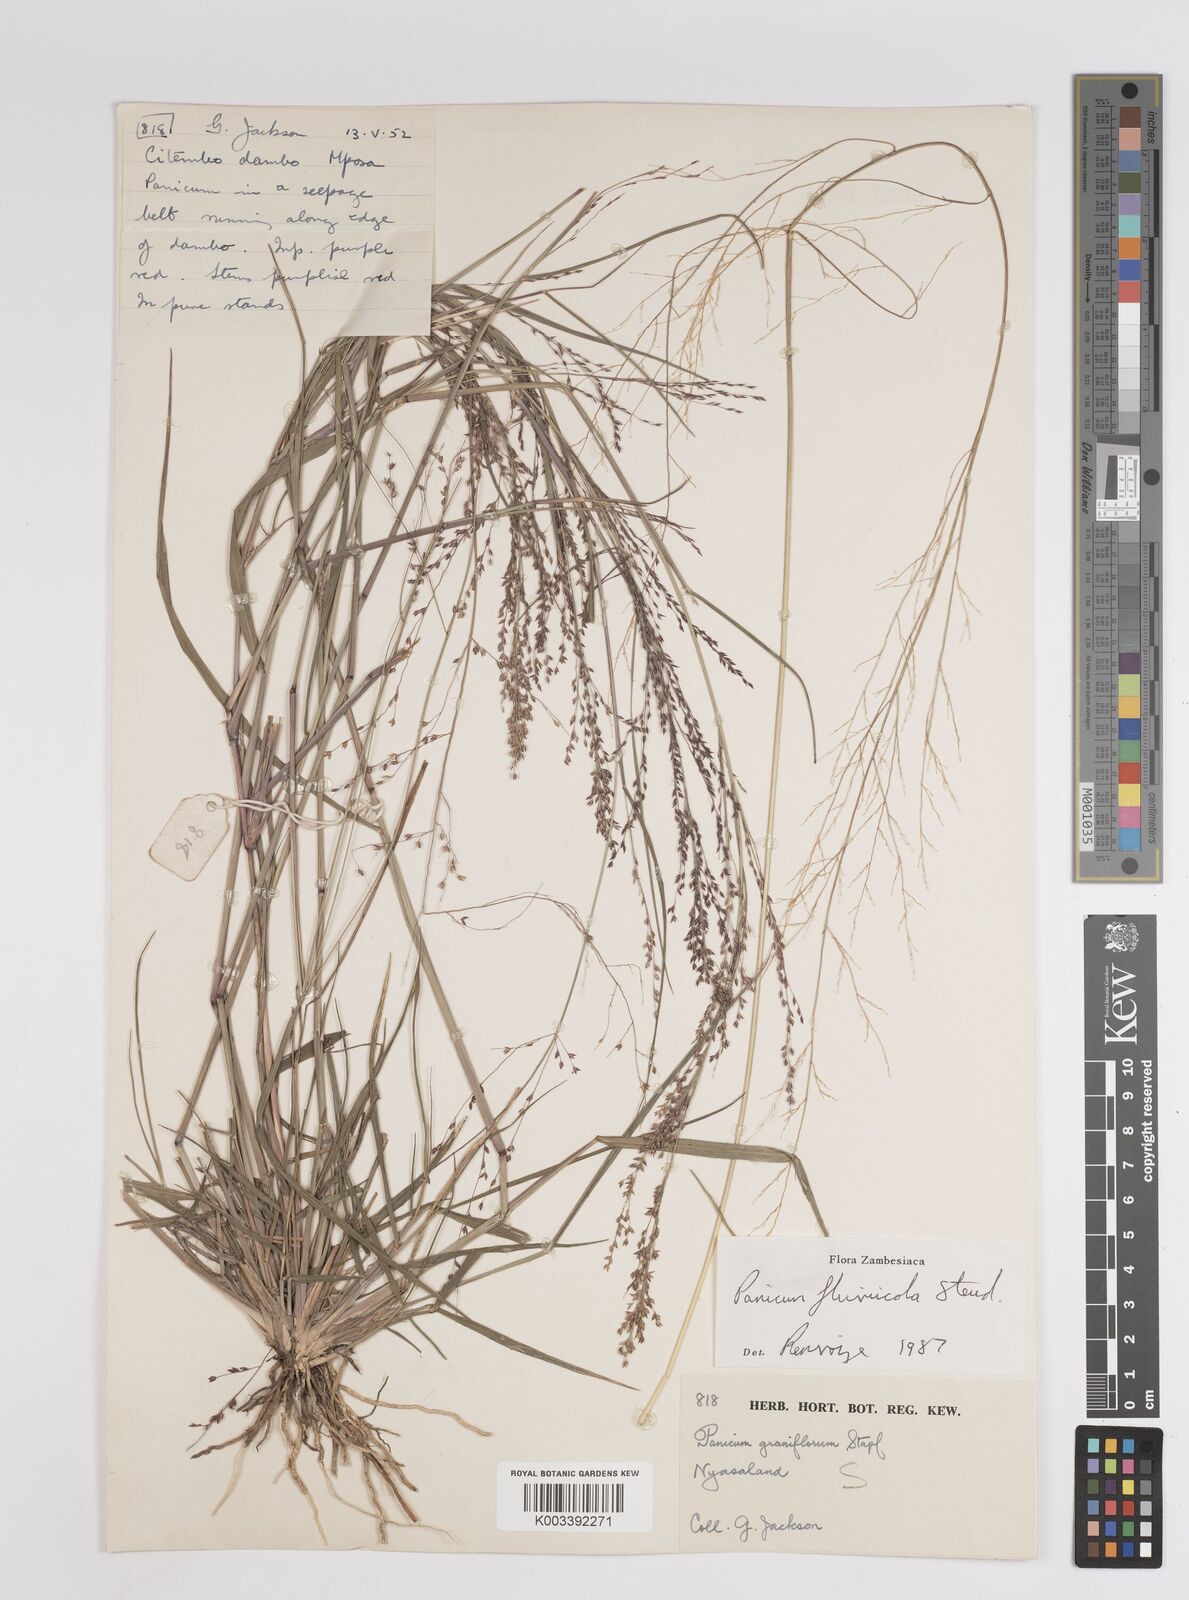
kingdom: Plantae
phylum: Tracheophyta
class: Liliopsida
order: Poales
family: Poaceae
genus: Panicum
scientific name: Panicum fluviicola
